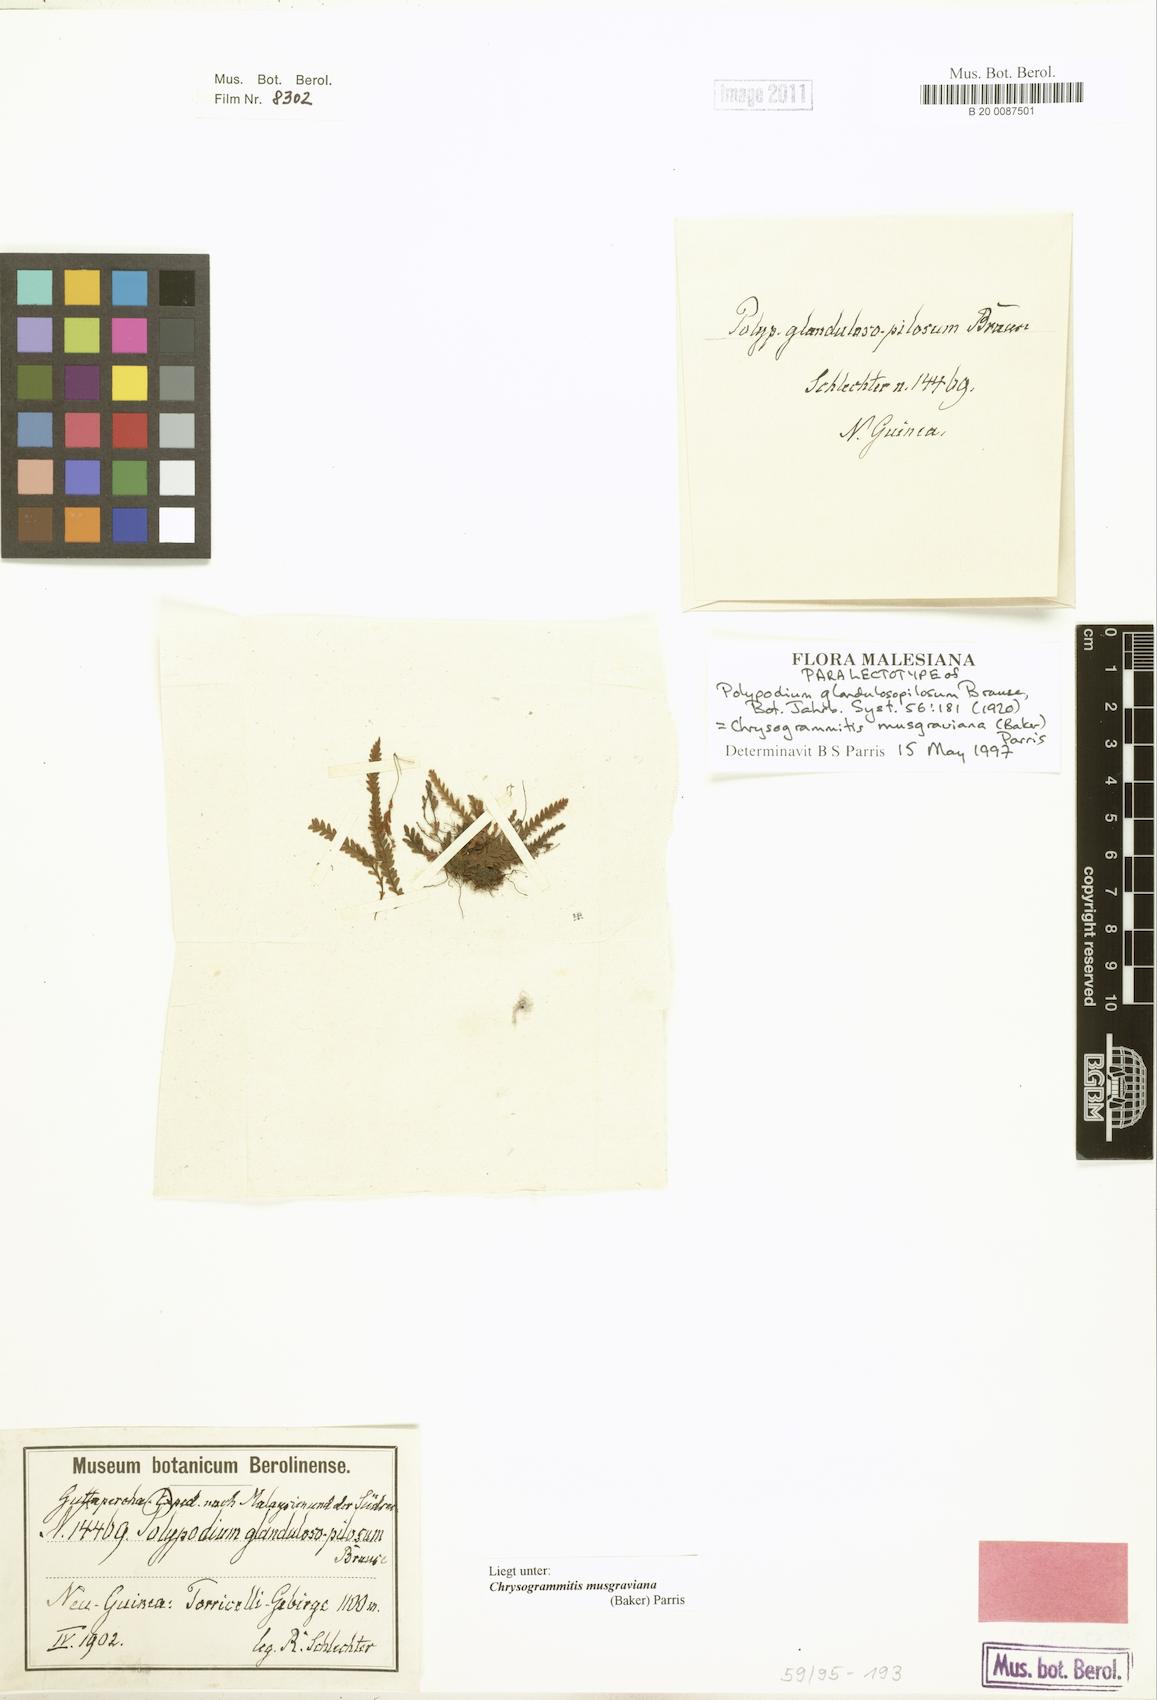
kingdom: Plantae
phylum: Tracheophyta
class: Polypodiopsida
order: Polypodiales
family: Polypodiaceae
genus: Chrysogrammitis
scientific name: Chrysogrammitis musgraviana
